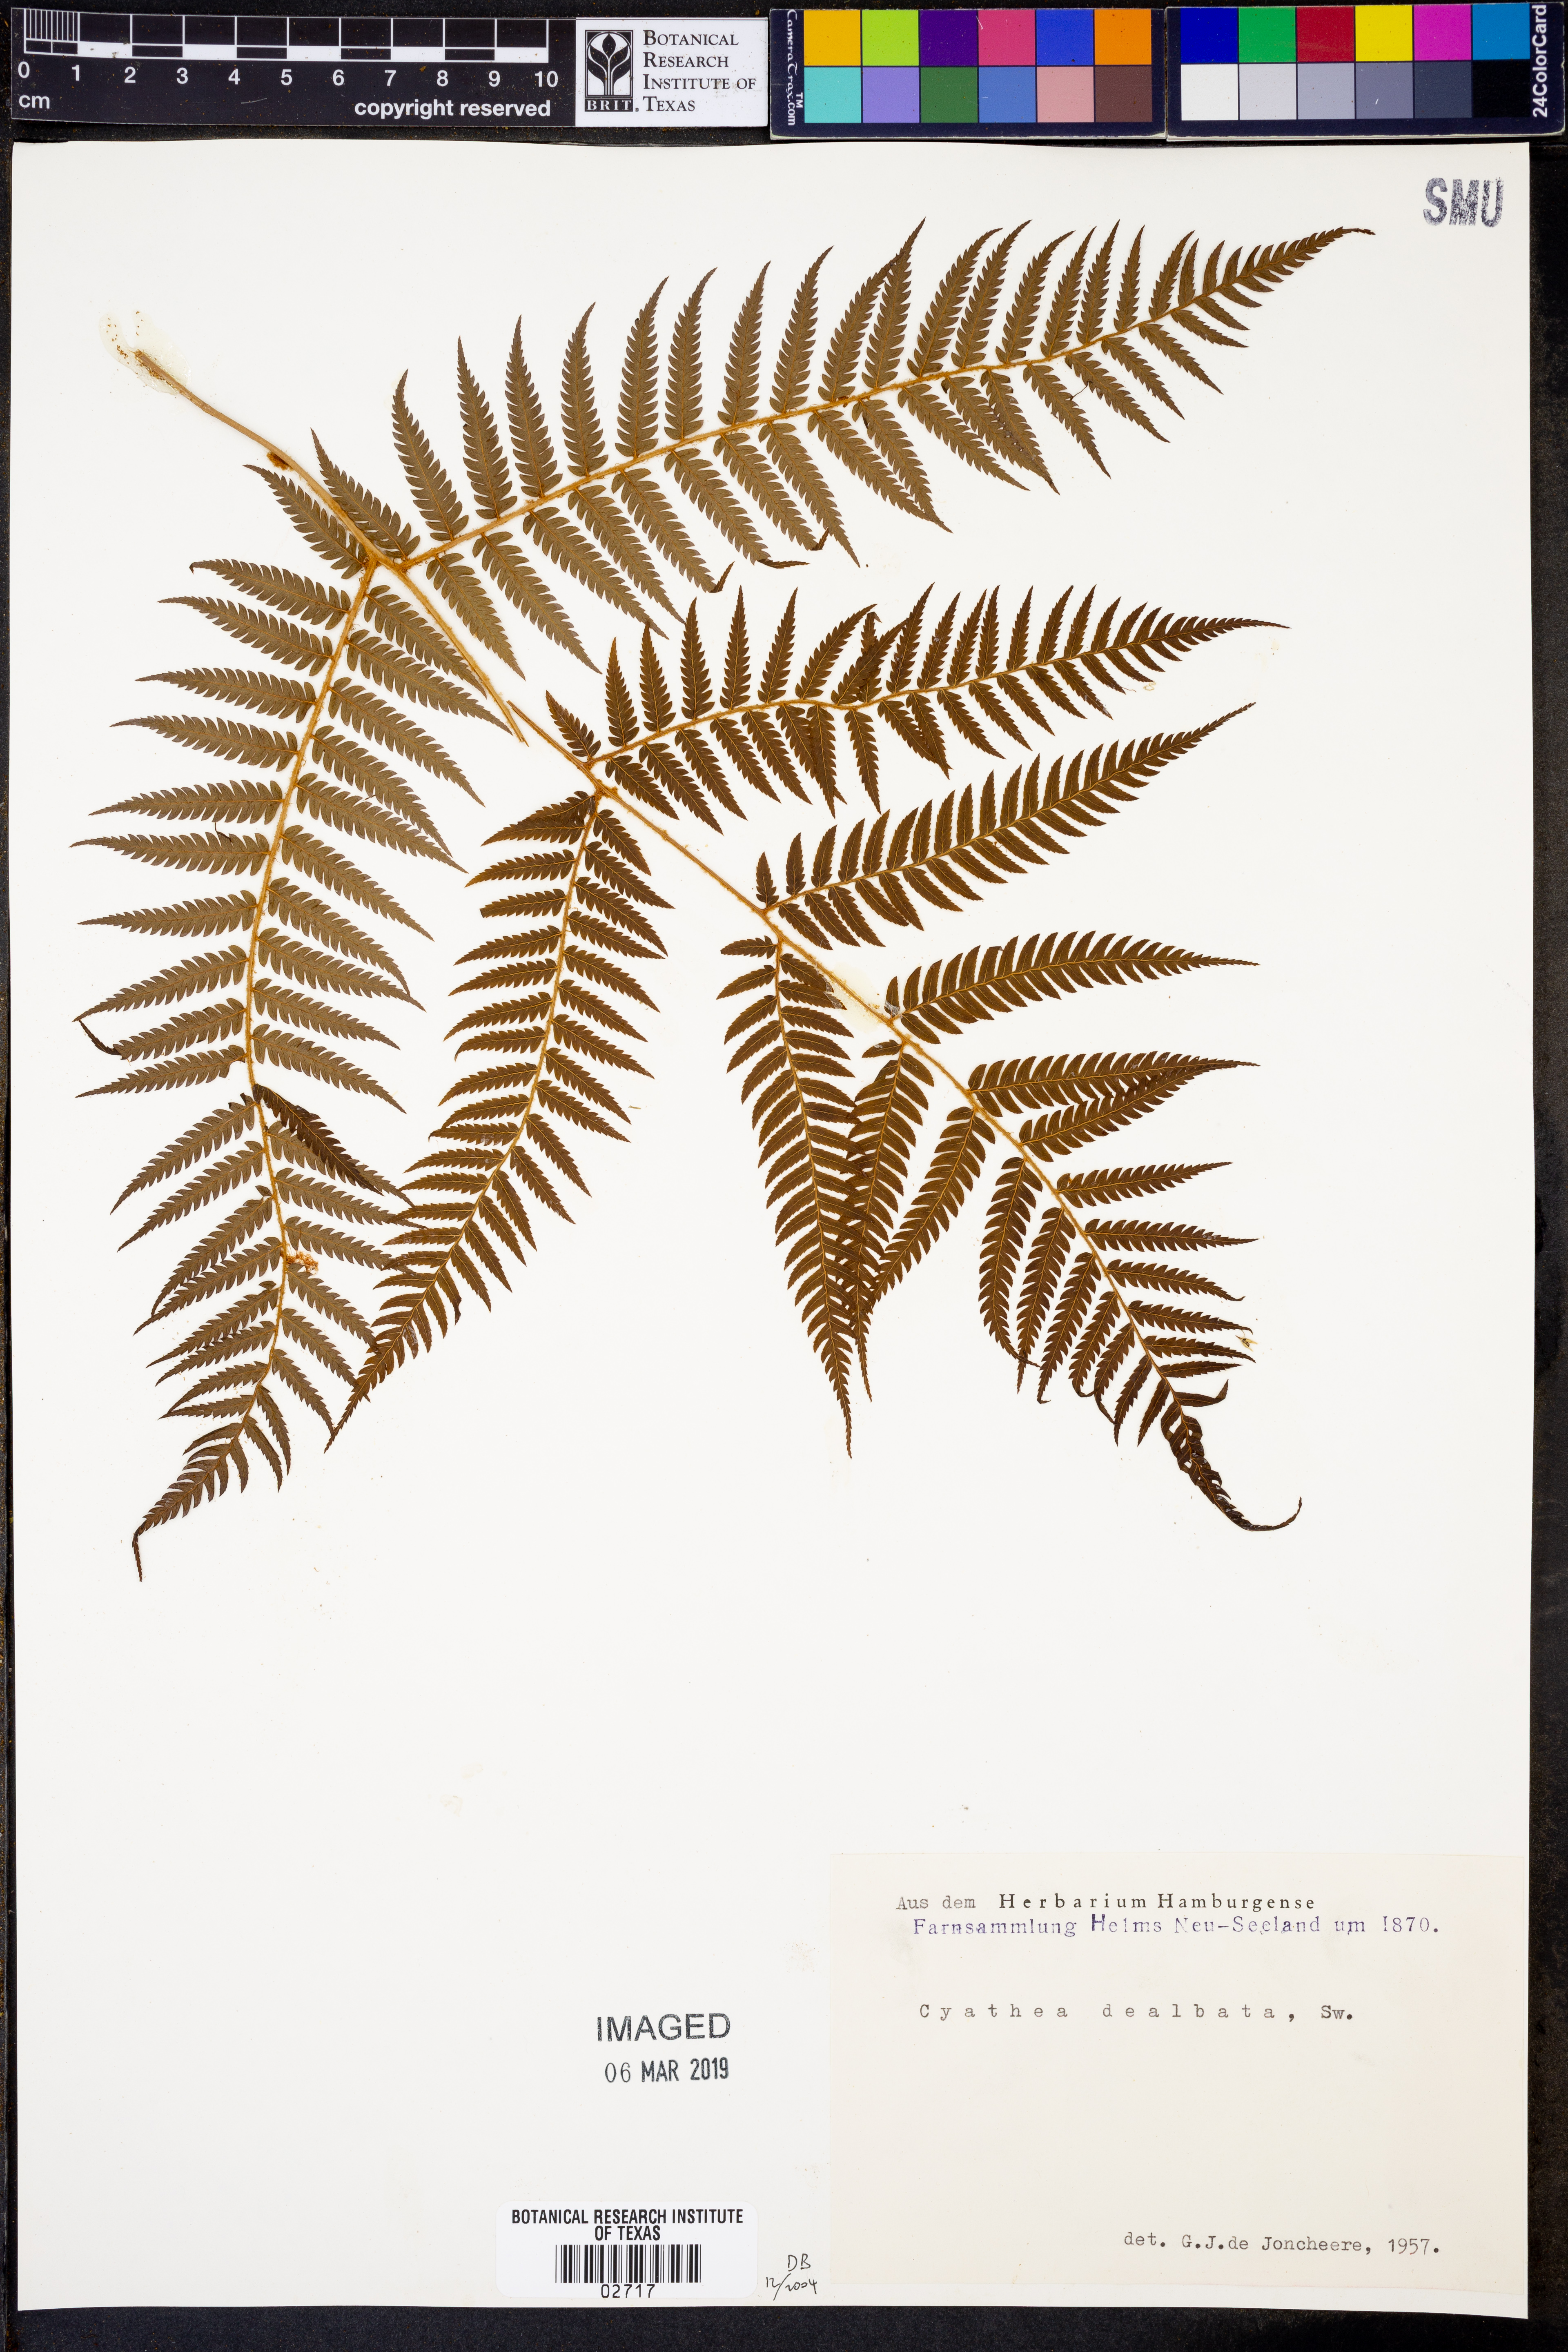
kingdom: Plantae
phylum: Tracheophyta
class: Polypodiopsida
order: Cyatheales
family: Cyatheaceae
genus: Alsophila
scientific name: Alsophila dealbata
